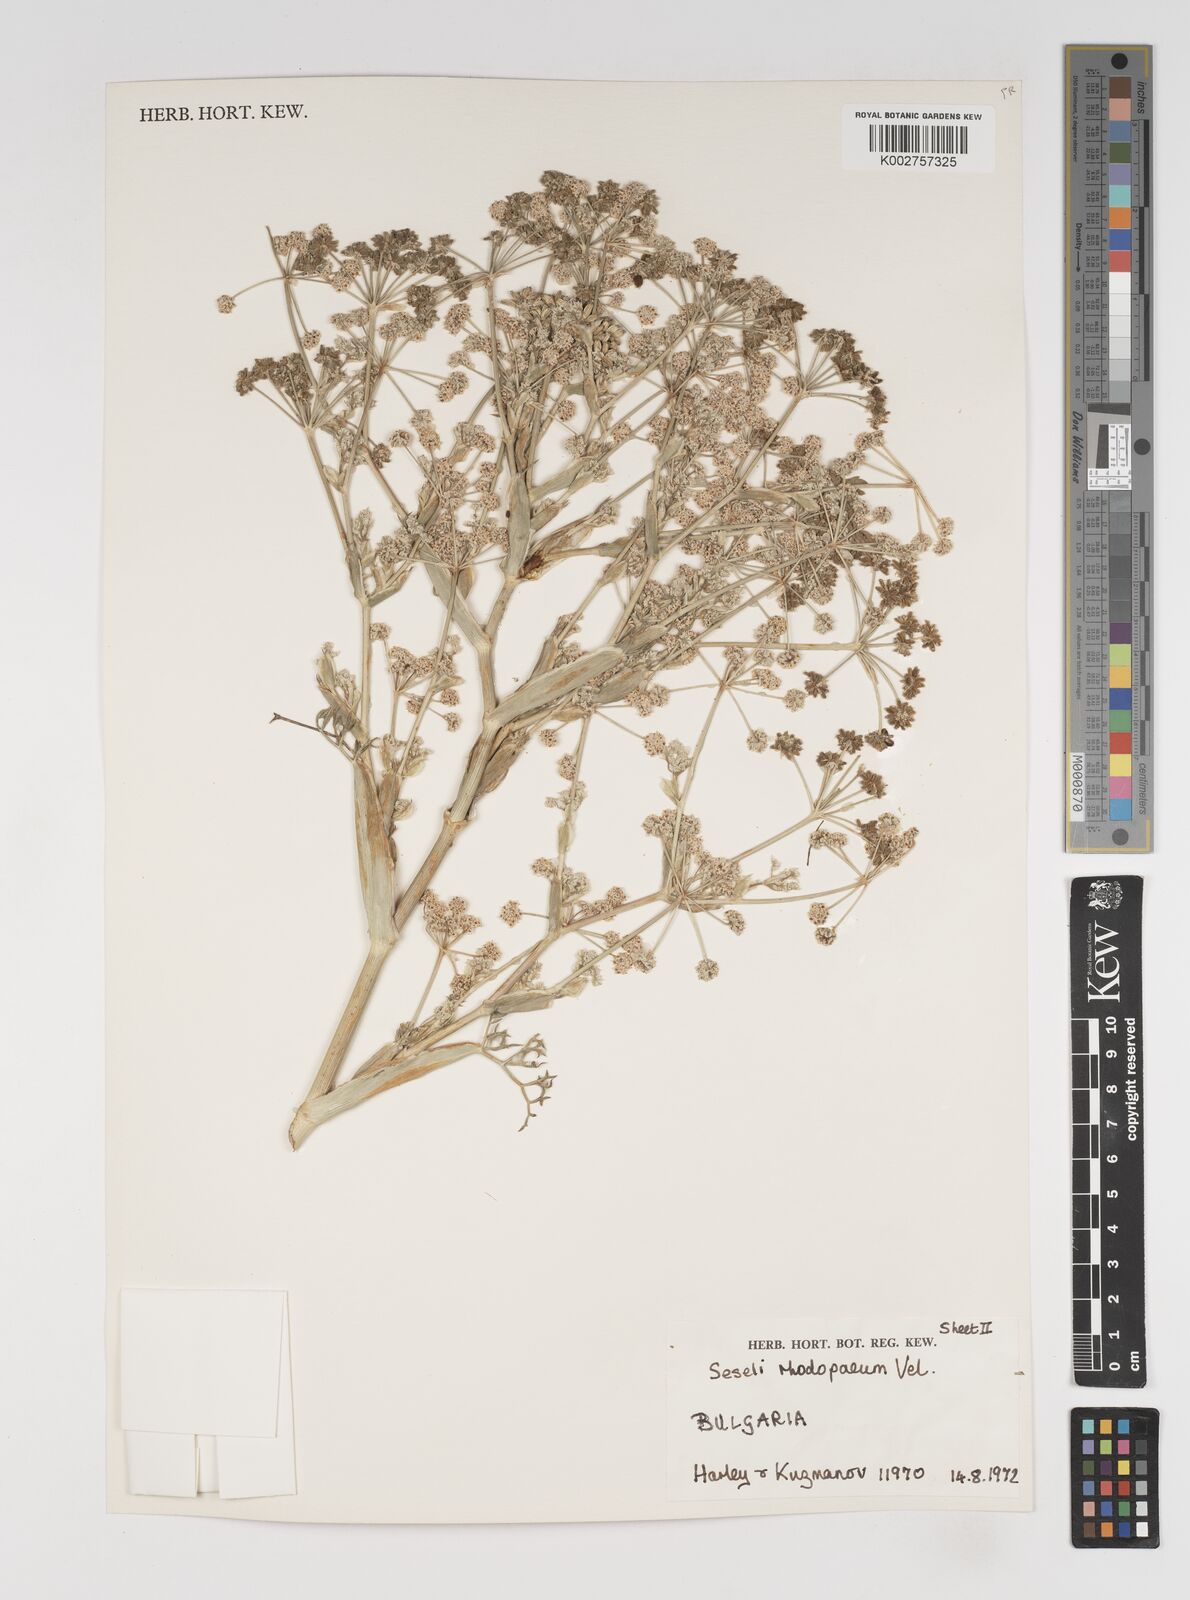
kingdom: Plantae
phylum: Tracheophyta
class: Magnoliopsida
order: Apiales
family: Apiaceae
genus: Seseli
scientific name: Seseli rhodopeum
